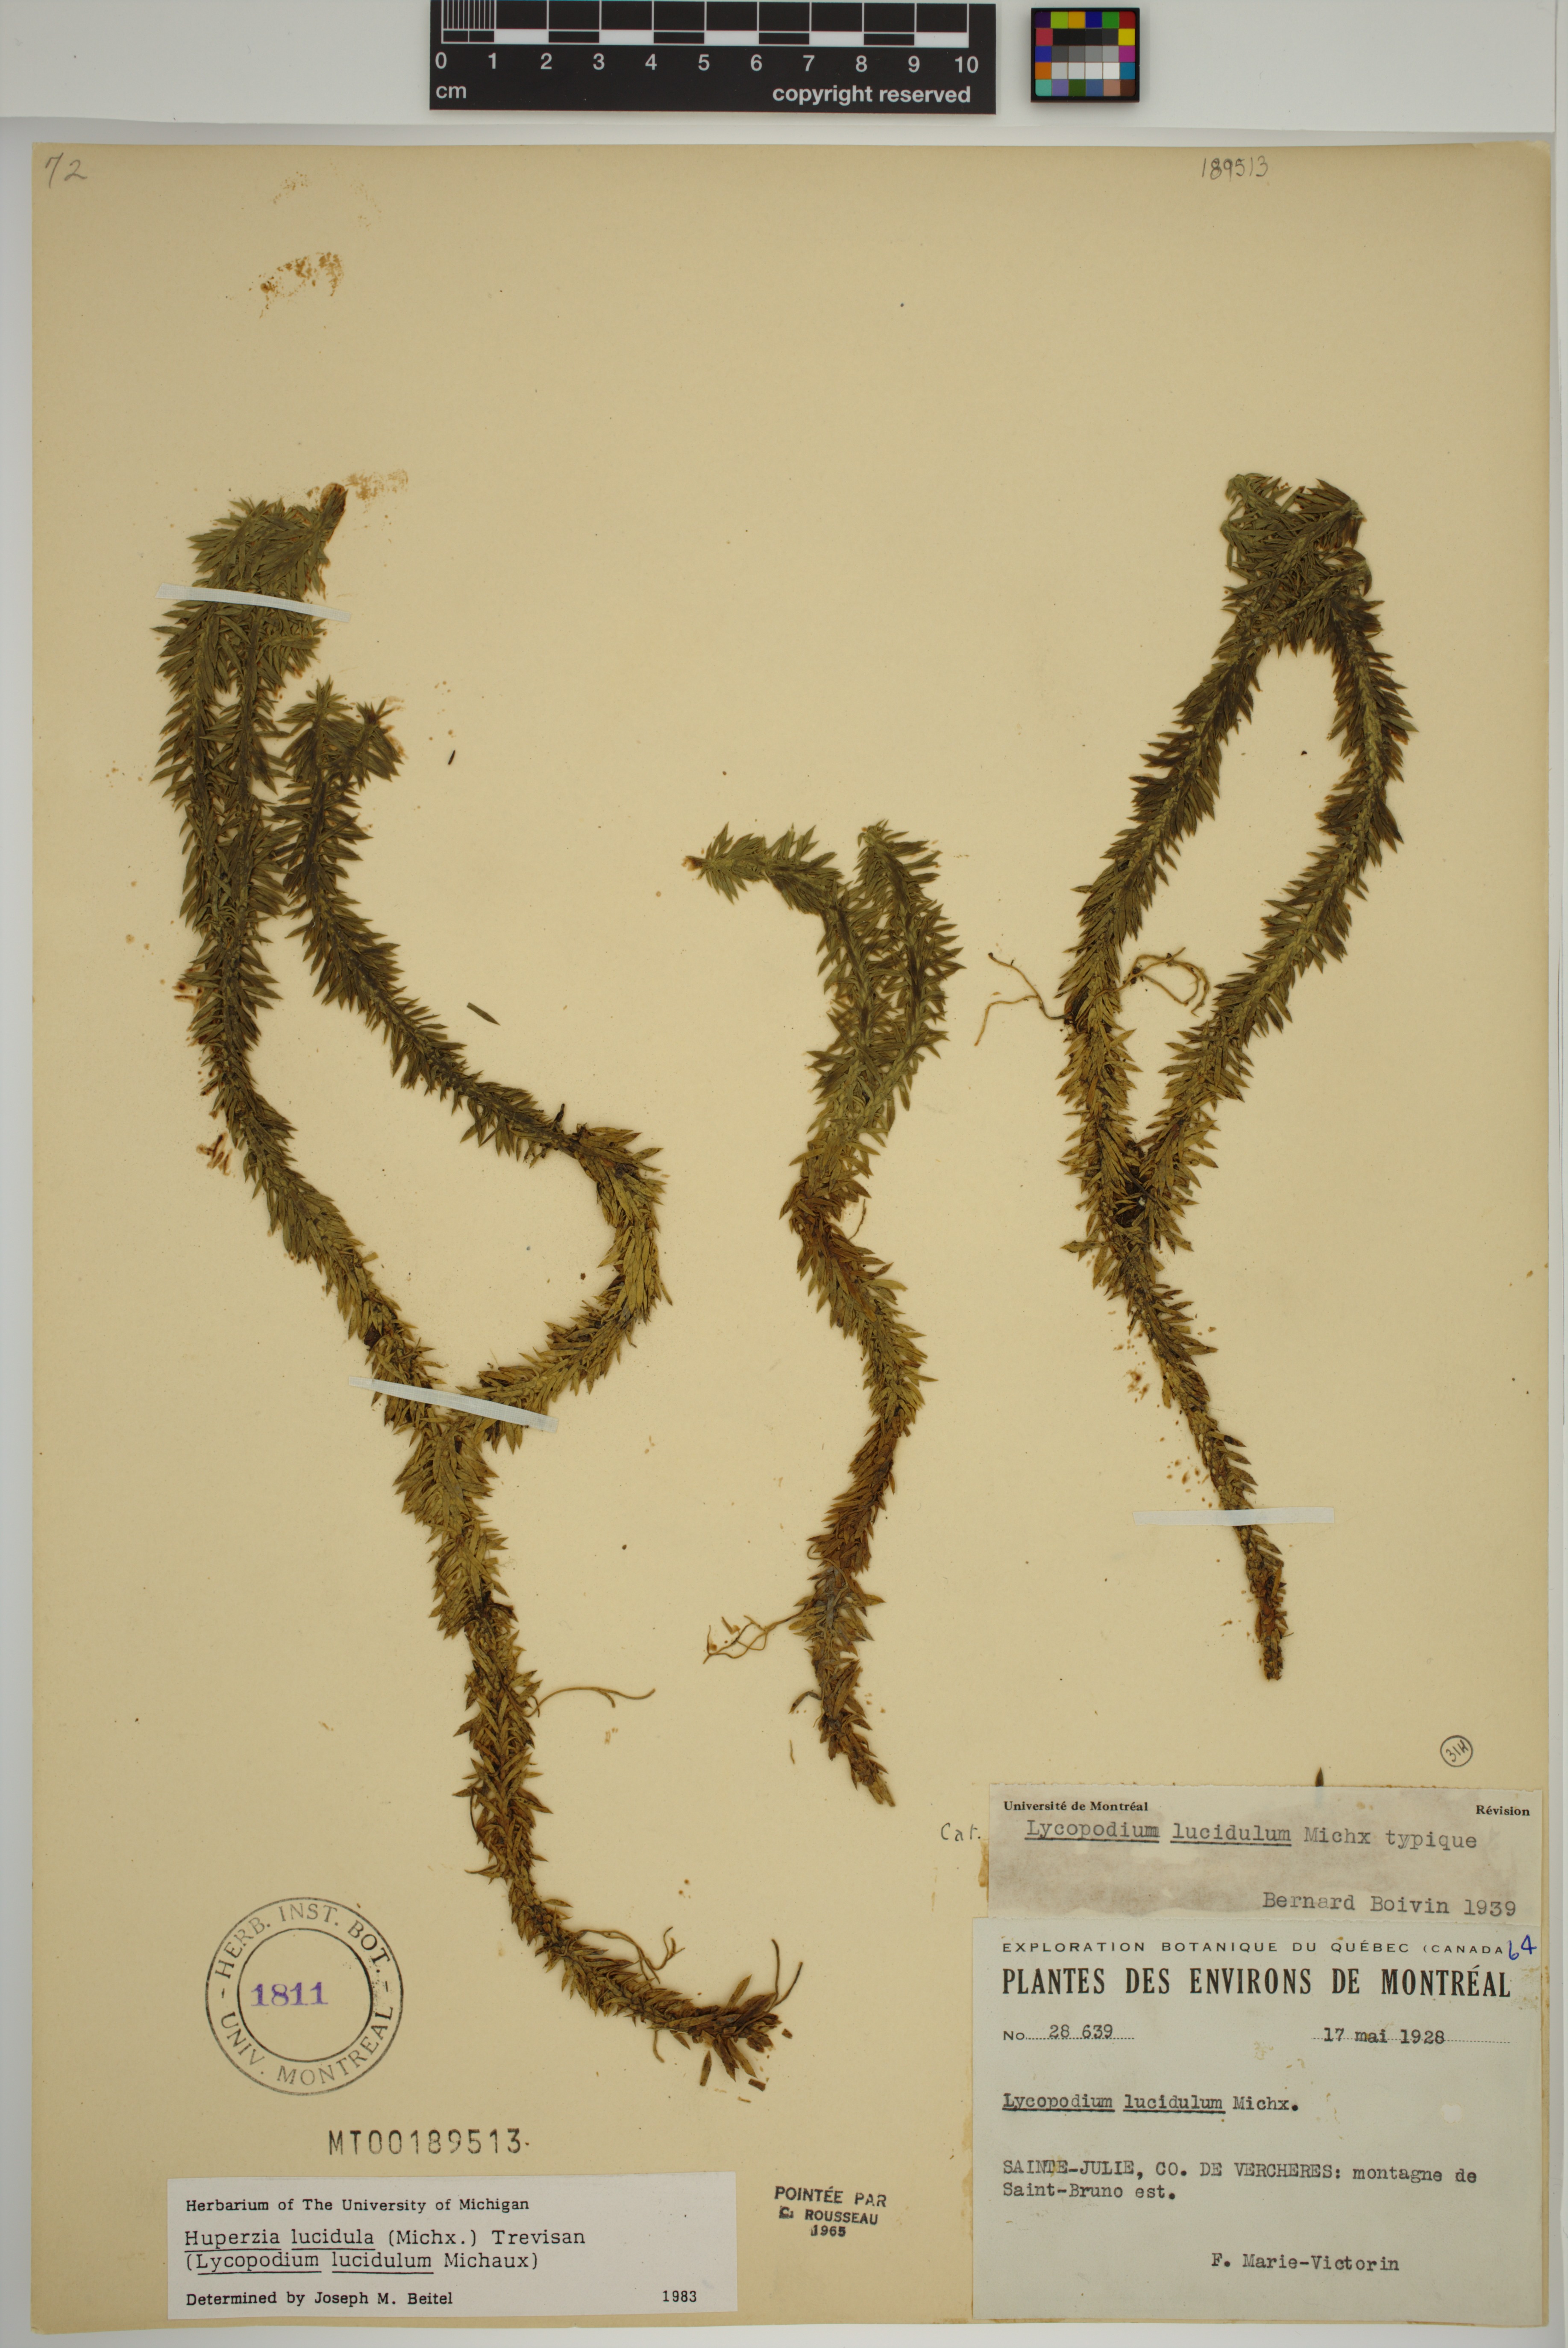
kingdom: Plantae
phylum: Tracheophyta
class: Lycopodiopsida
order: Lycopodiales
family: Lycopodiaceae
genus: Huperzia
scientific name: Huperzia lucidula
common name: Shining clubmoss
